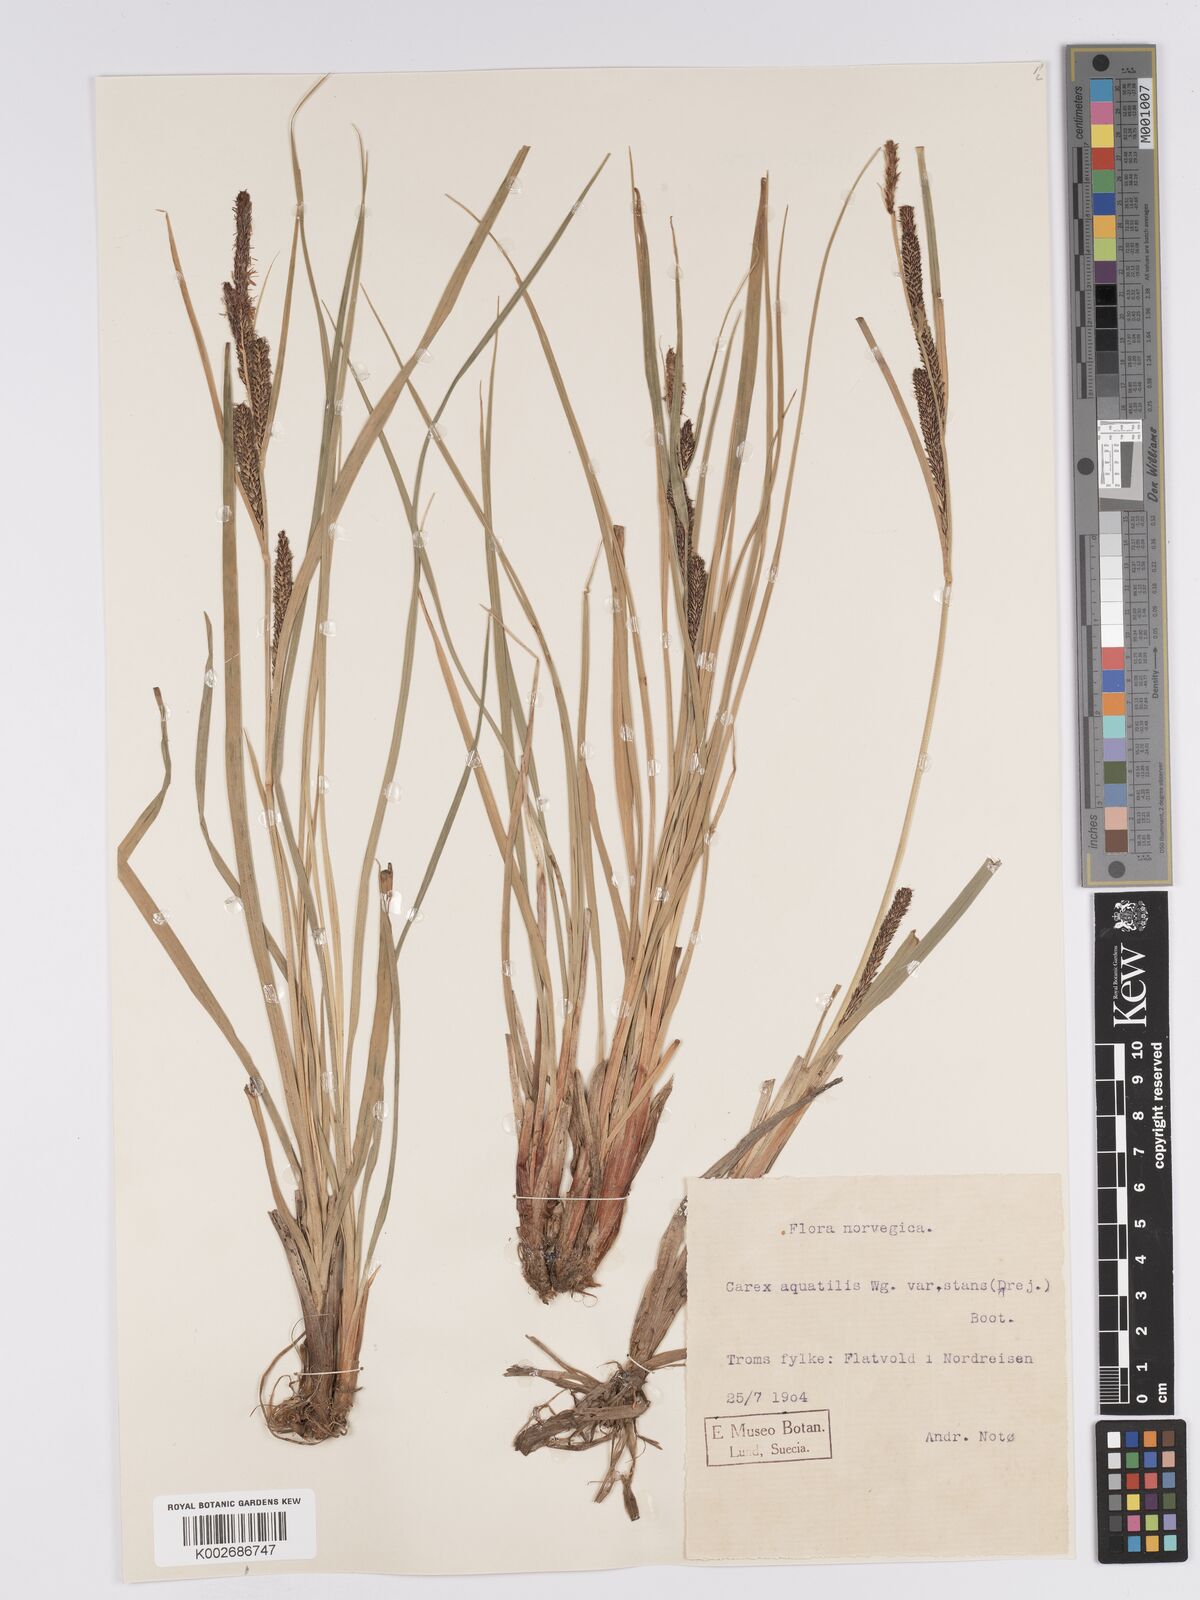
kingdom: Plantae
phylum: Tracheophyta
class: Liliopsida
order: Poales
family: Cyperaceae
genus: Carex
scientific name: Carex aquatilis
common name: Water sedge
